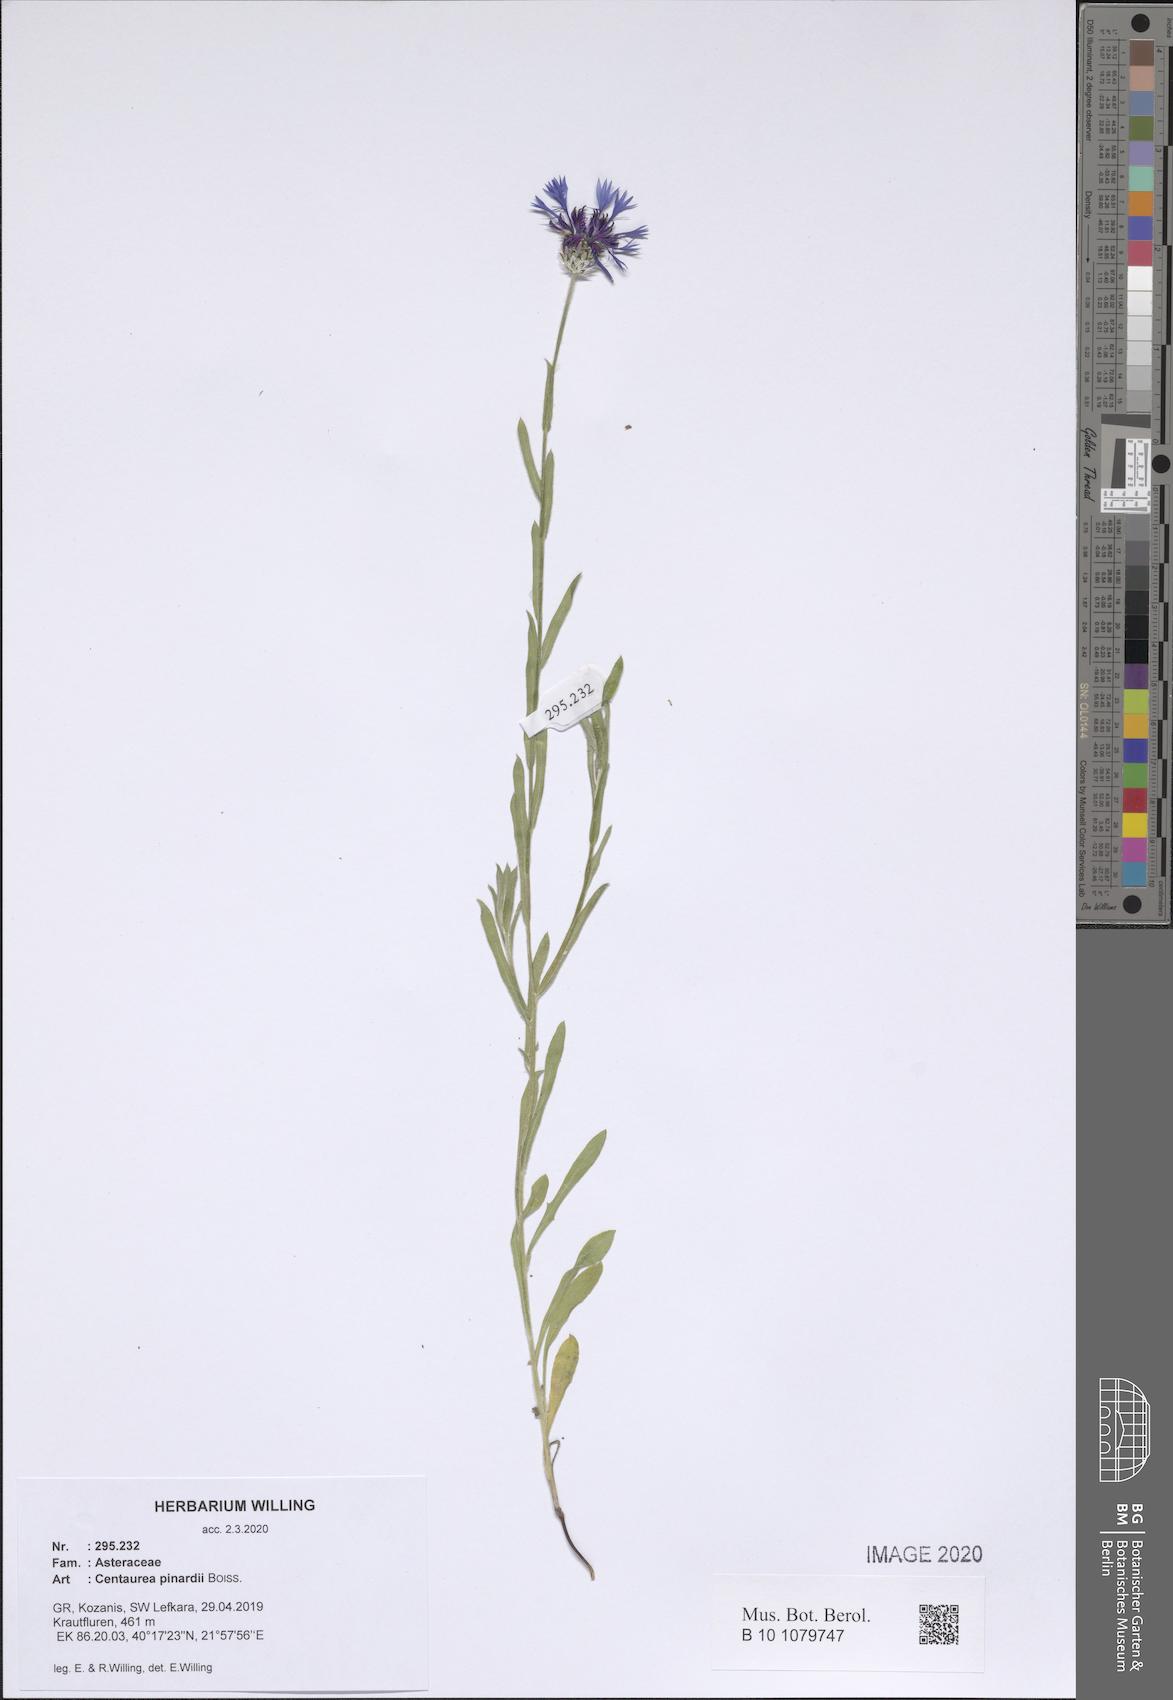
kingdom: Plantae
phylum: Tracheophyta
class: Magnoliopsida
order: Asterales
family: Asteraceae
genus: Centaurea
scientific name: Centaurea pinardii
